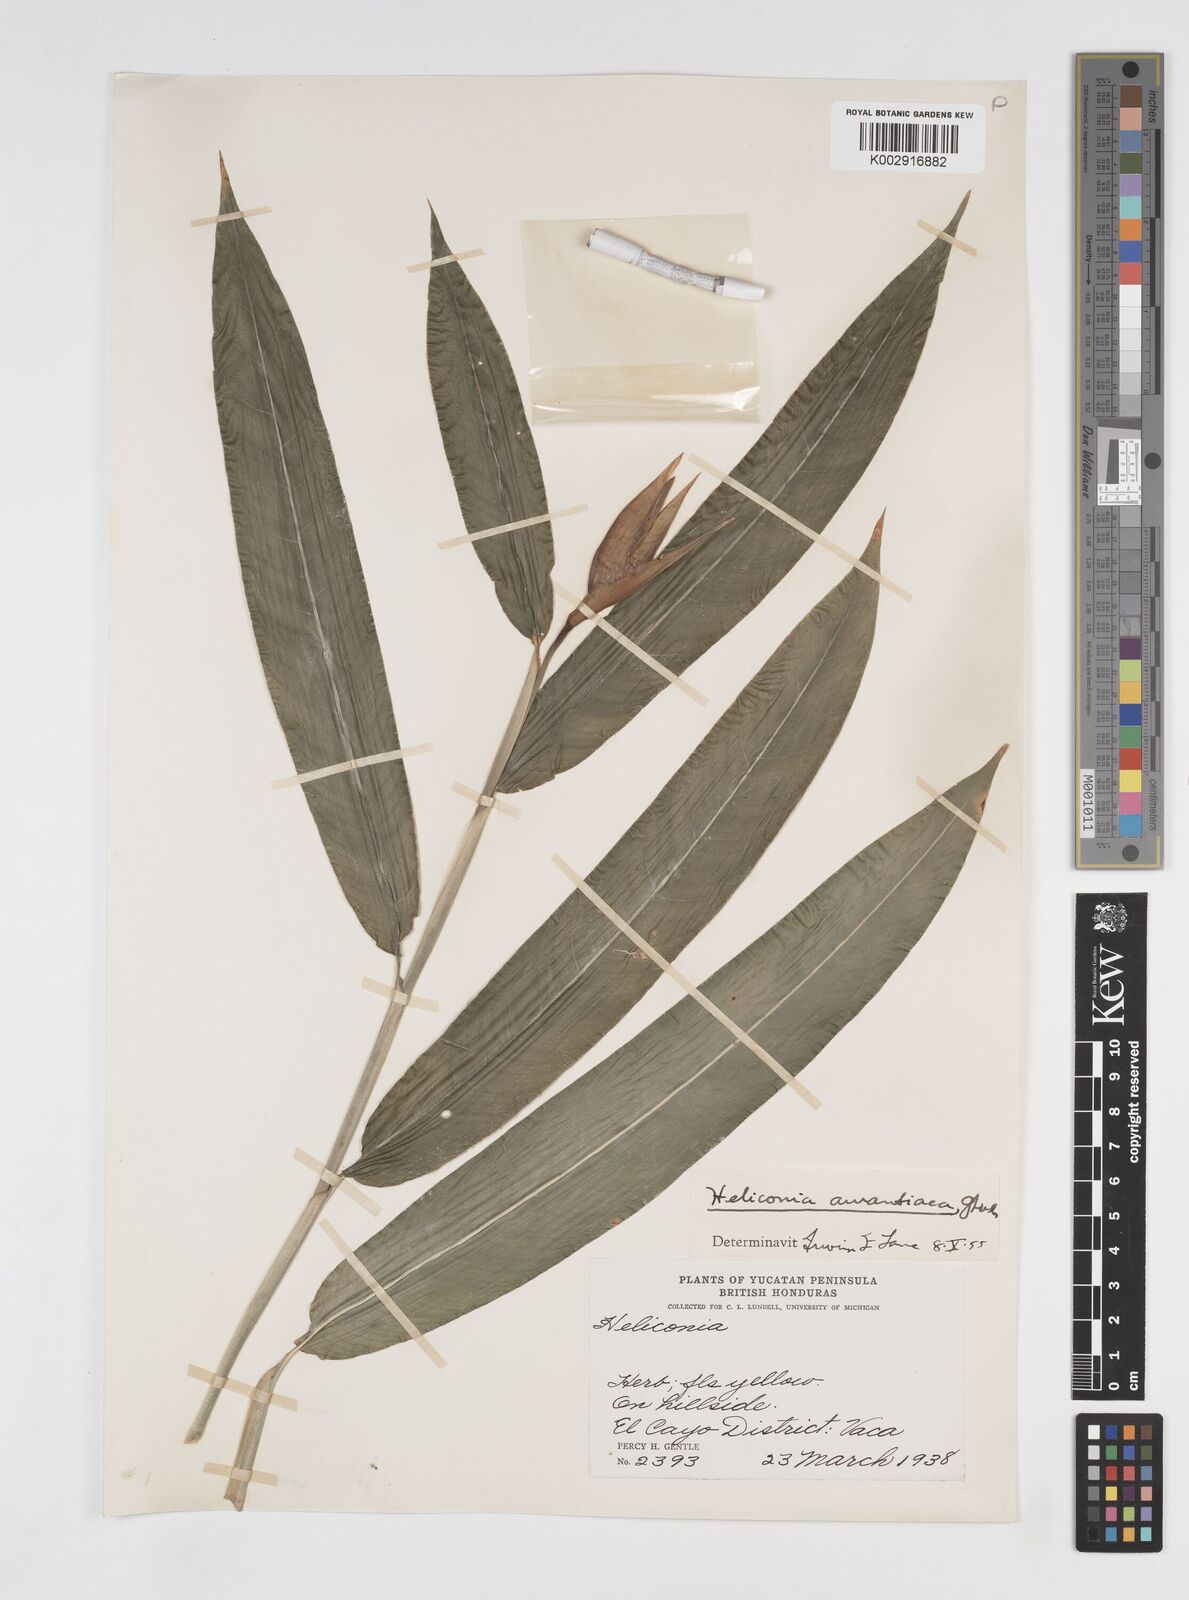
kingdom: Plantae
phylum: Tracheophyta
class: Liliopsida
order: Zingiberales
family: Heliconiaceae
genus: Heliconia
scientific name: Heliconia aurantiaca
